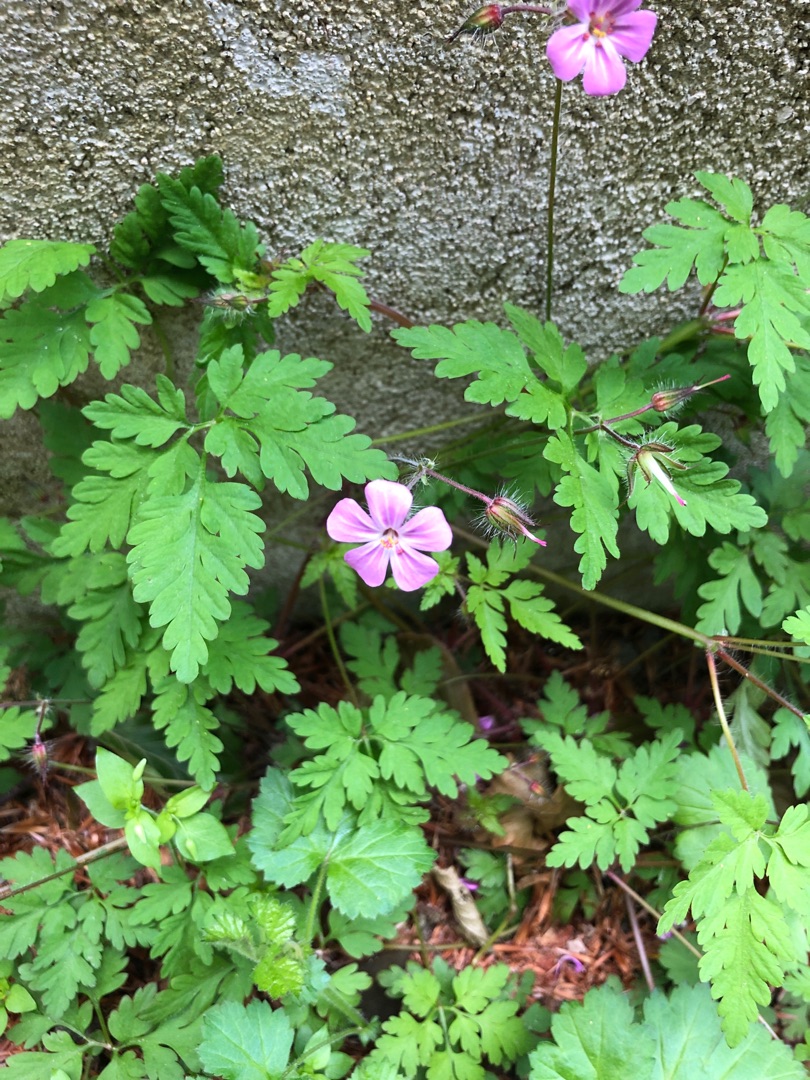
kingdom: Plantae
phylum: Tracheophyta
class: Magnoliopsida
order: Geraniales
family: Geraniaceae
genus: Geranium
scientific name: Geranium robertianum
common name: Stinkende storkenæb
